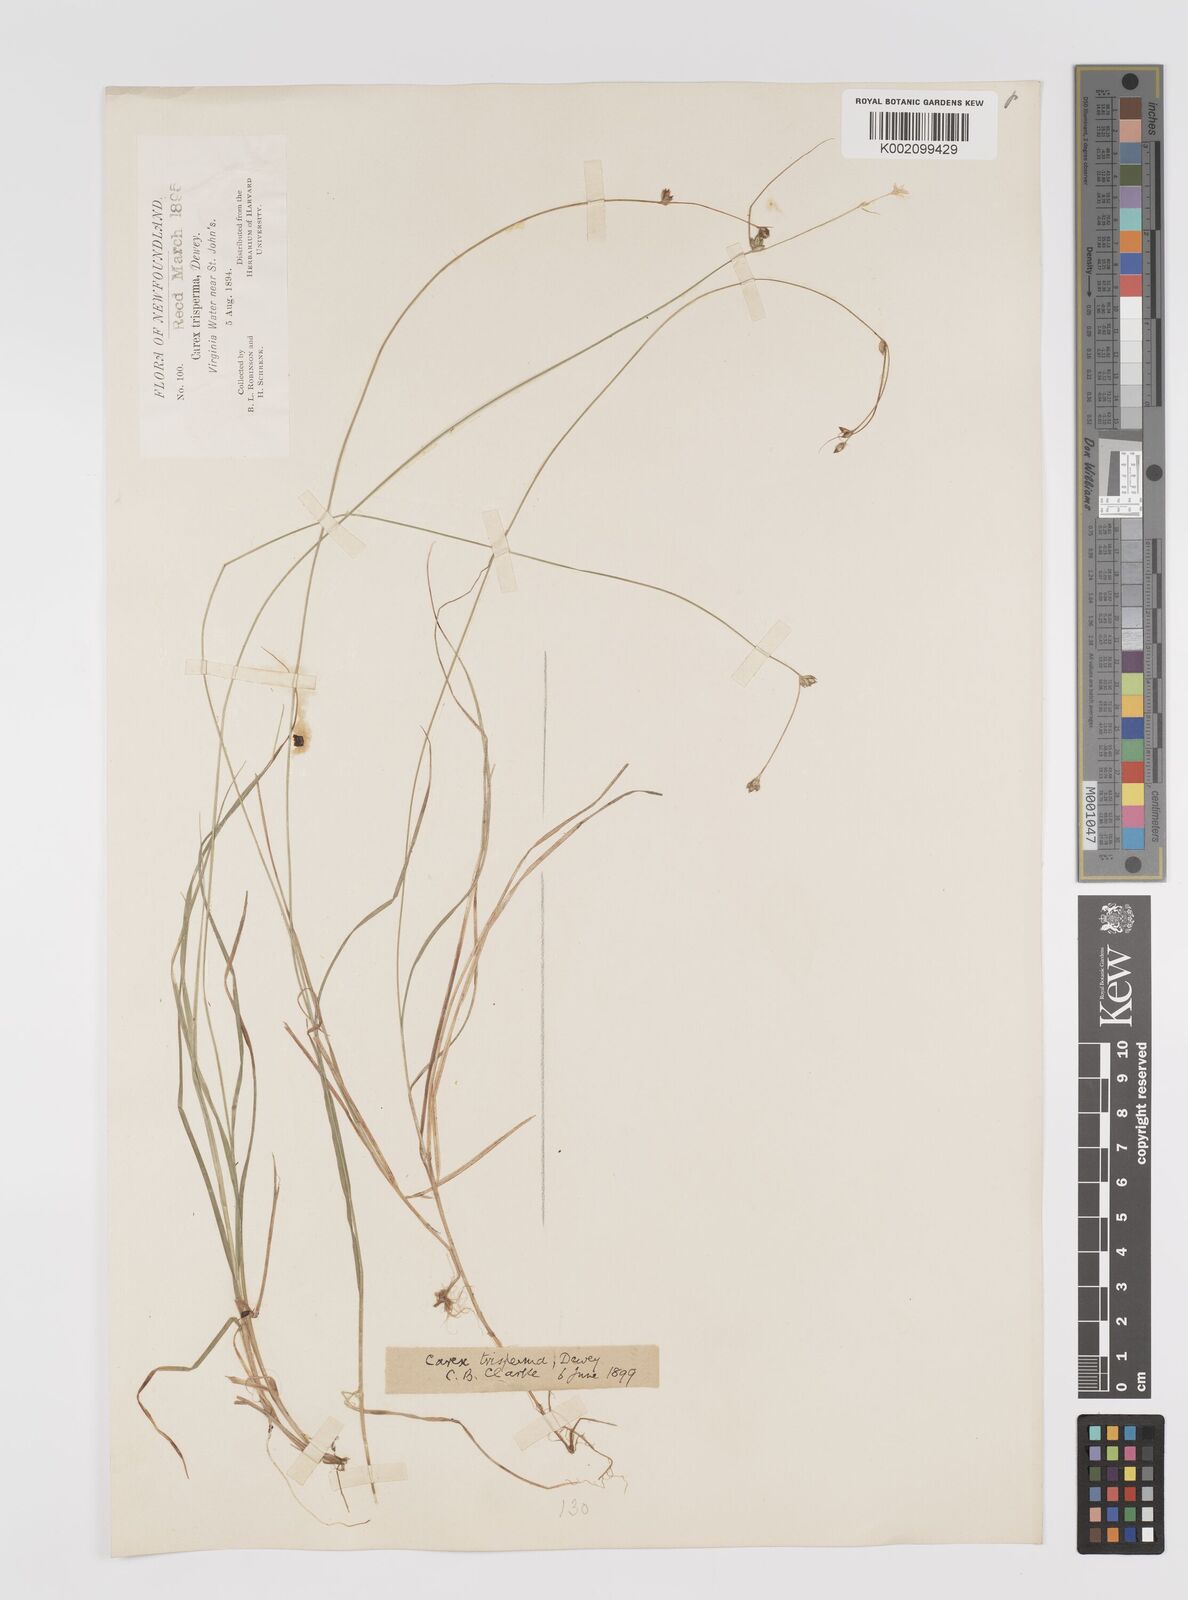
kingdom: Plantae
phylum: Tracheophyta
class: Liliopsida
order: Poales
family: Cyperaceae
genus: Carex
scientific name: Carex trisperma
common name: Three-seeded sedge
